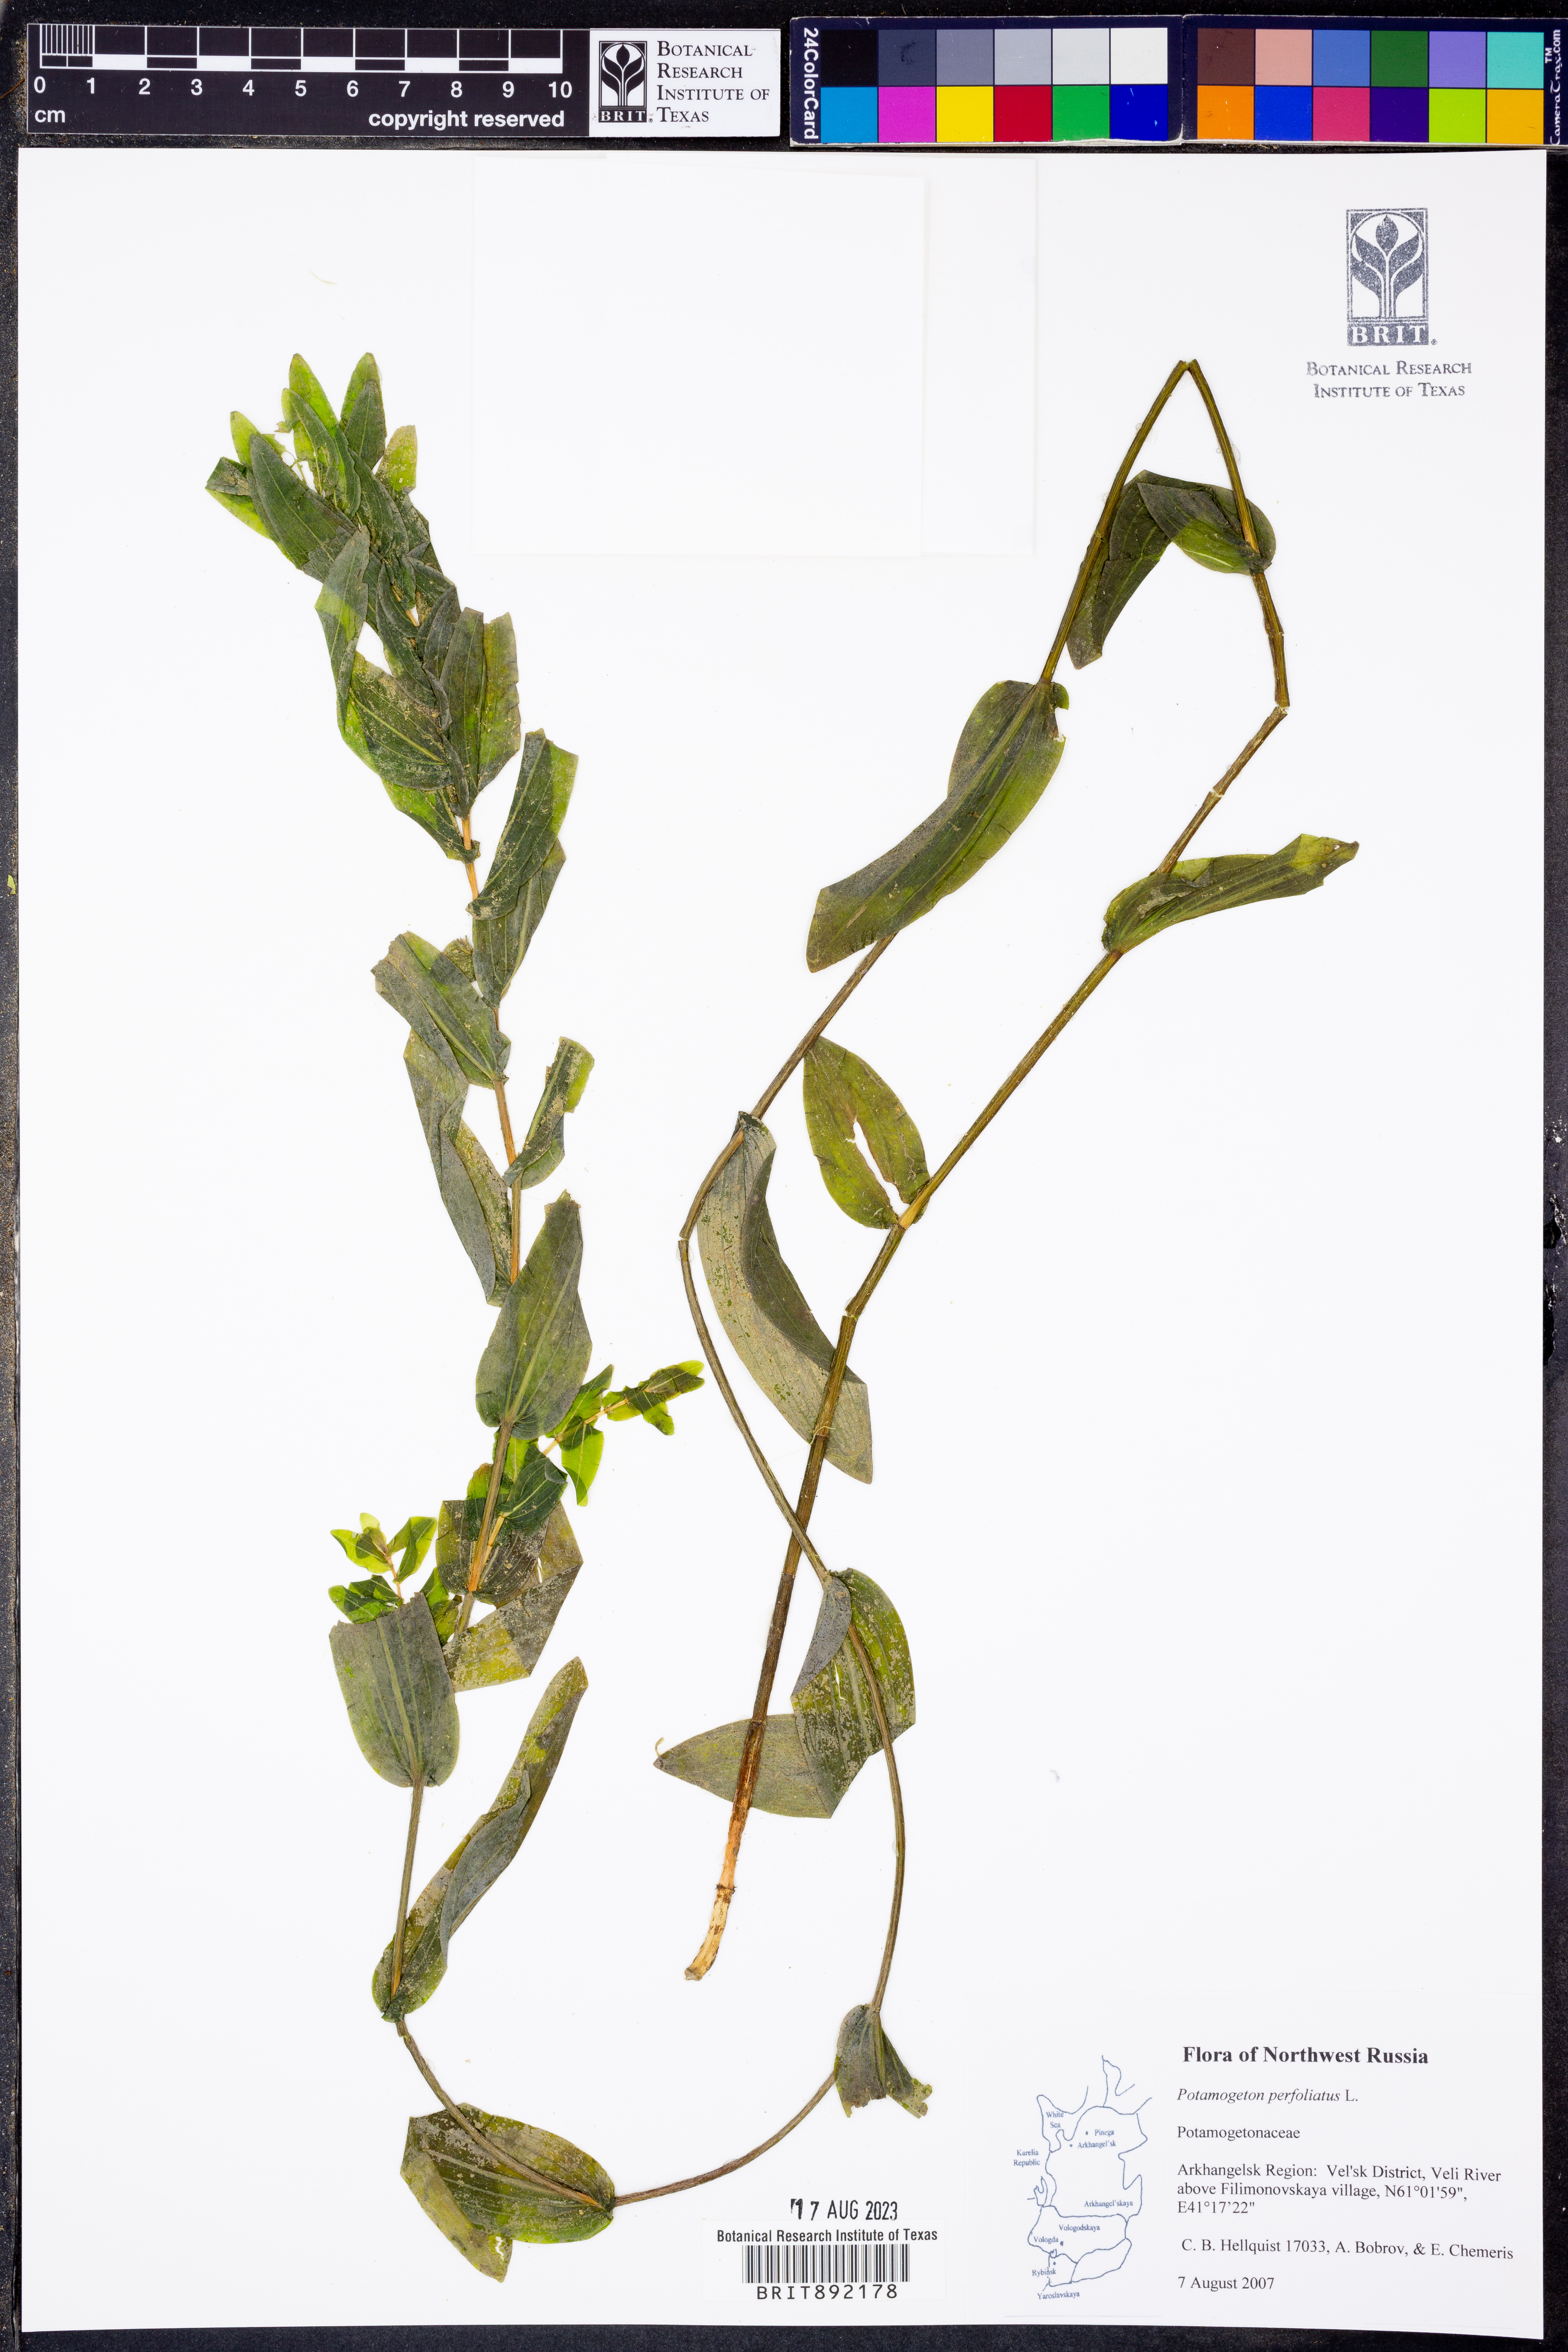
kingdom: Plantae
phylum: Tracheophyta
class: Liliopsida
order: Alismatales
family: Potamogetonaceae
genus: Potamogeton
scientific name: Potamogeton perfoliatus
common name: Perfoliate pondweed
